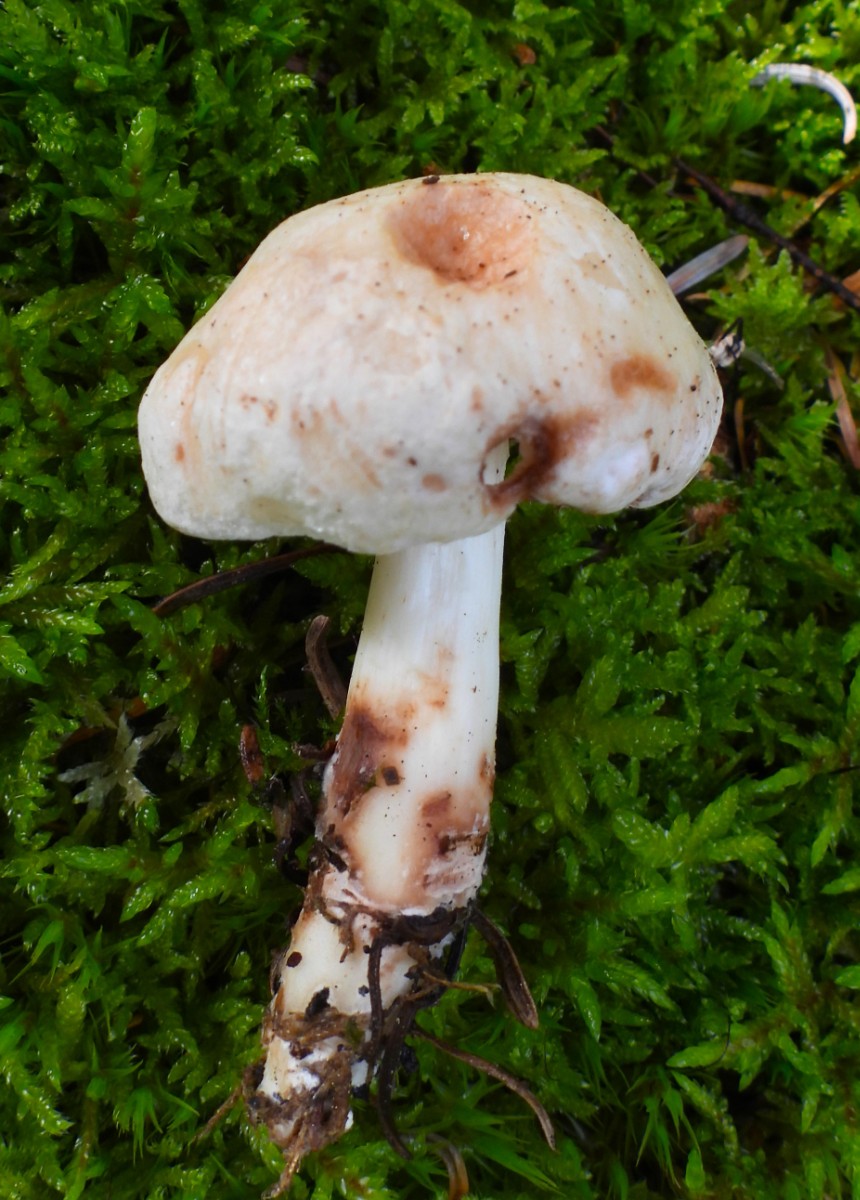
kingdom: Fungi
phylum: Basidiomycota
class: Agaricomycetes
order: Agaricales
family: Omphalotaceae
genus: Rhodocollybia
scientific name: Rhodocollybia maculata
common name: plettet fladhat
